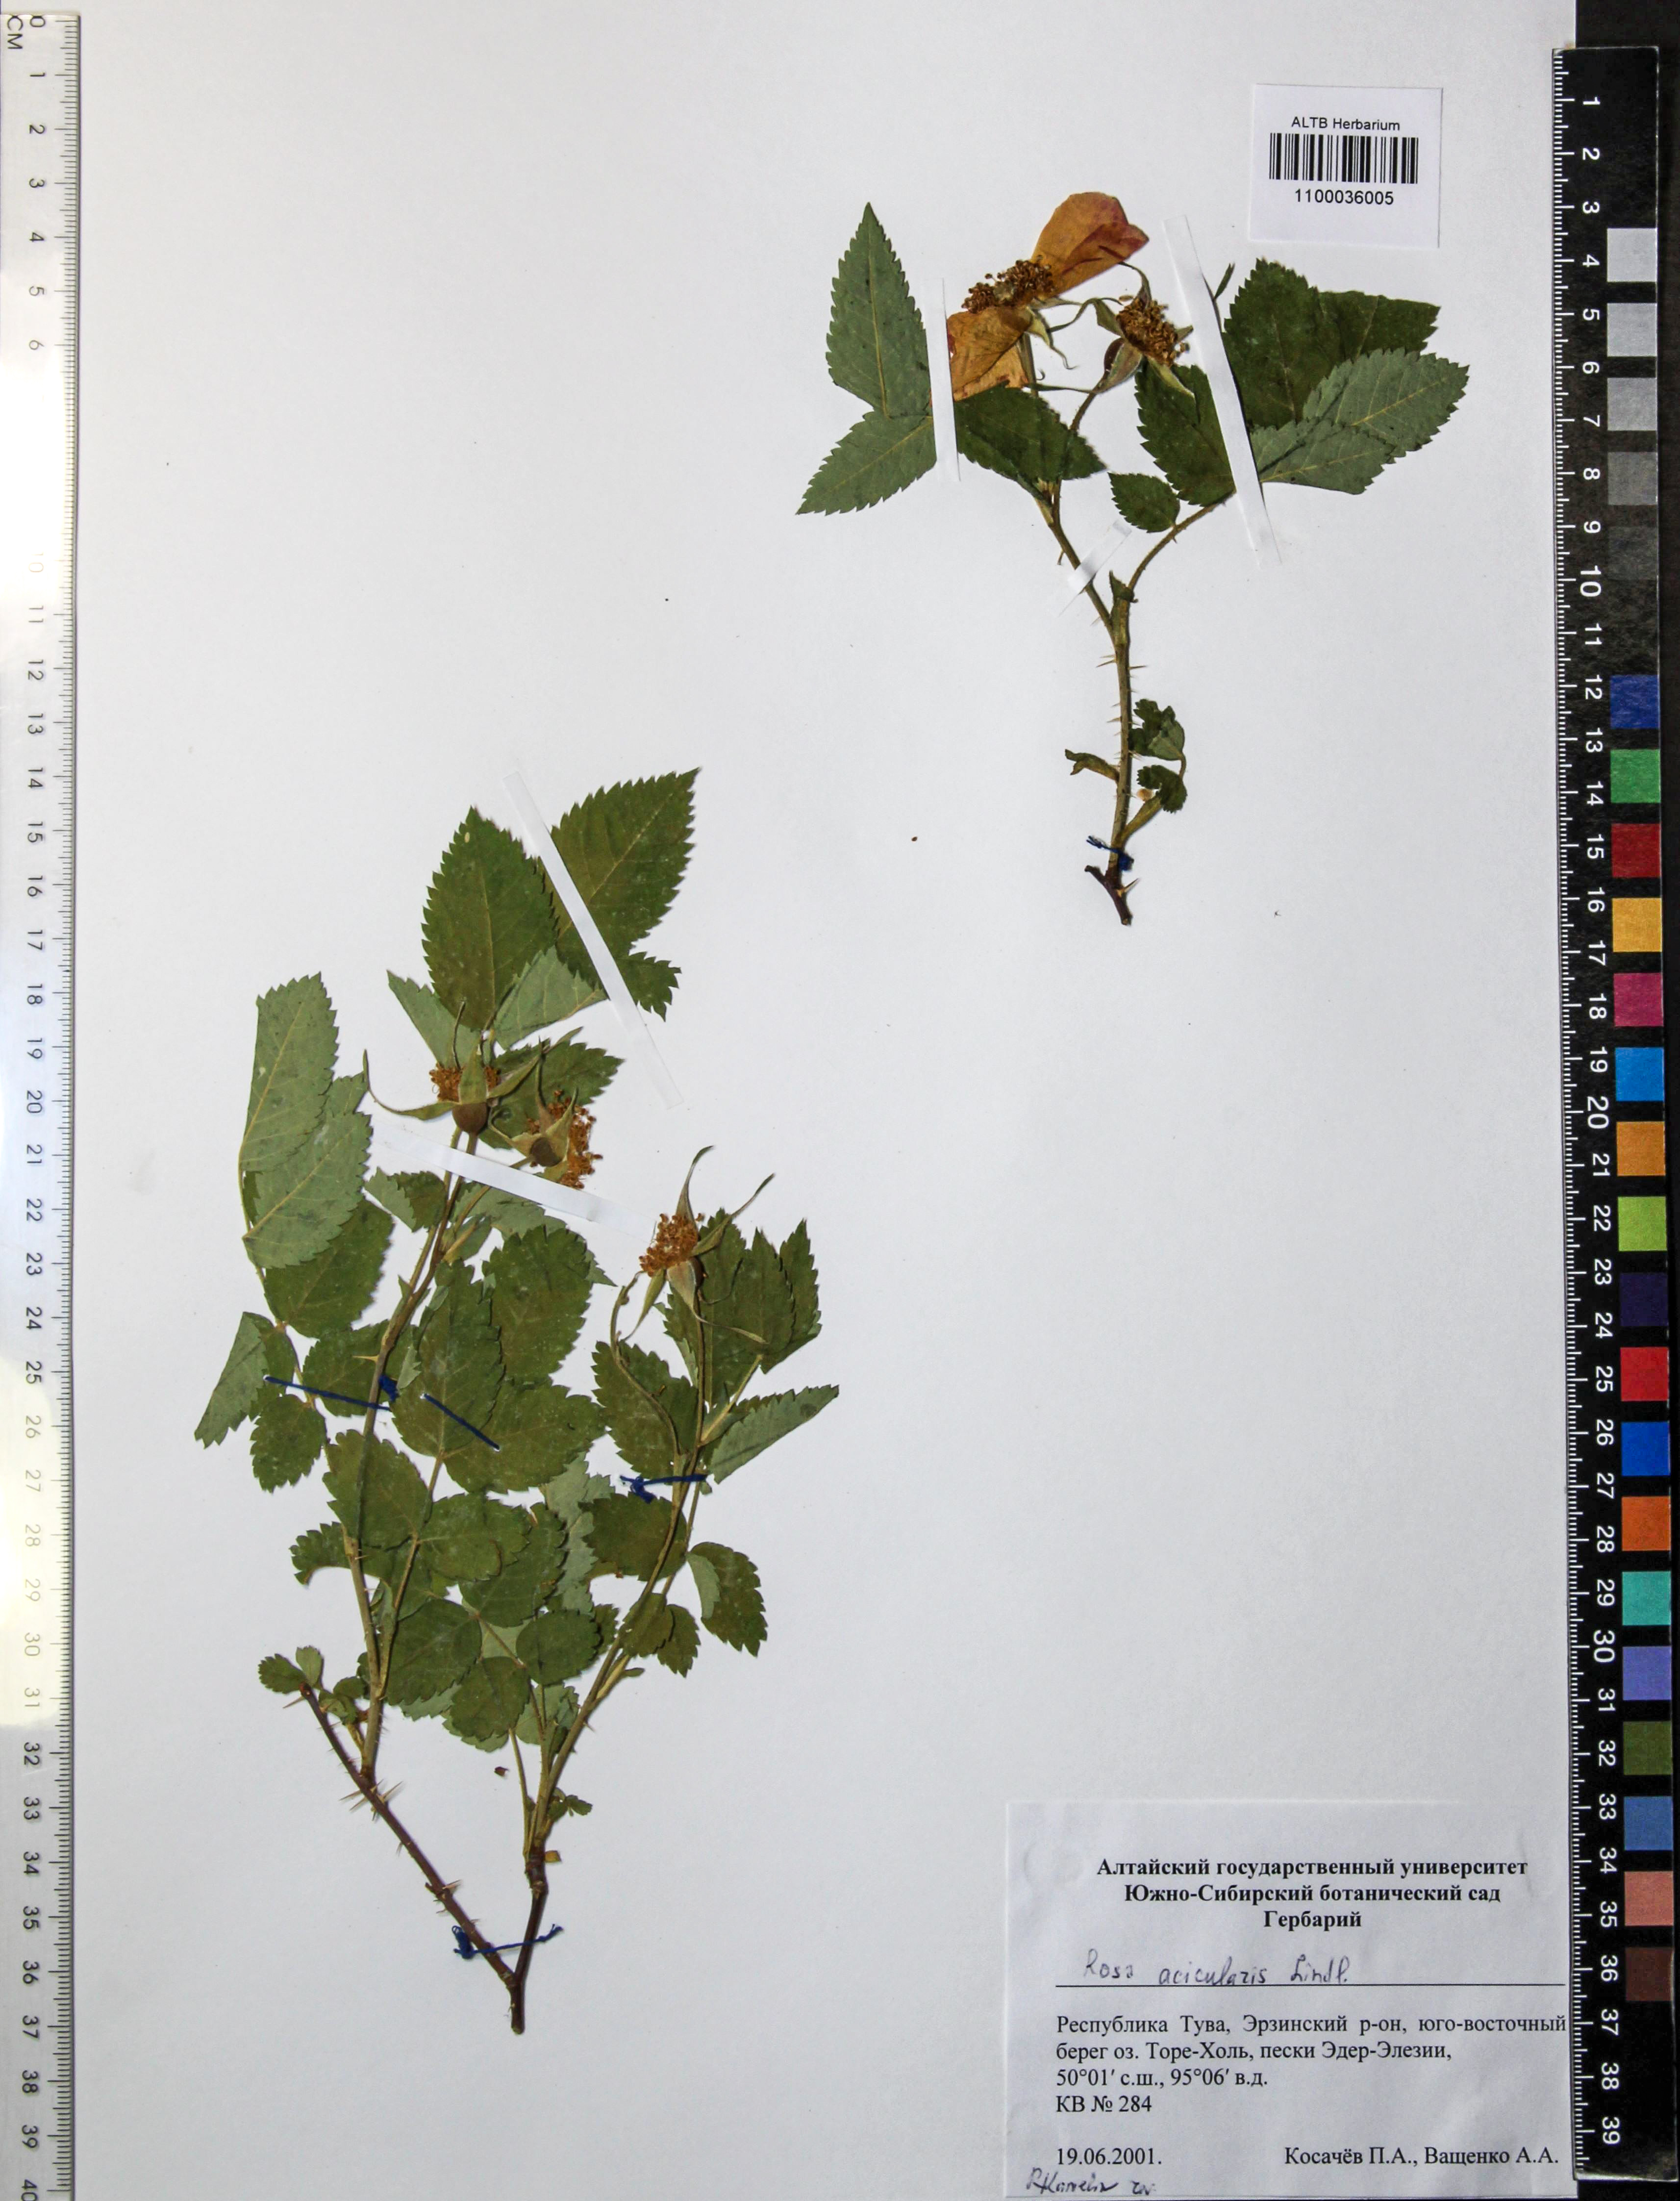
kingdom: Plantae
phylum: Tracheophyta
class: Magnoliopsida
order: Rosales
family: Rosaceae
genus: Rosa
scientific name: Rosa acicularis
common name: Prickly rose
